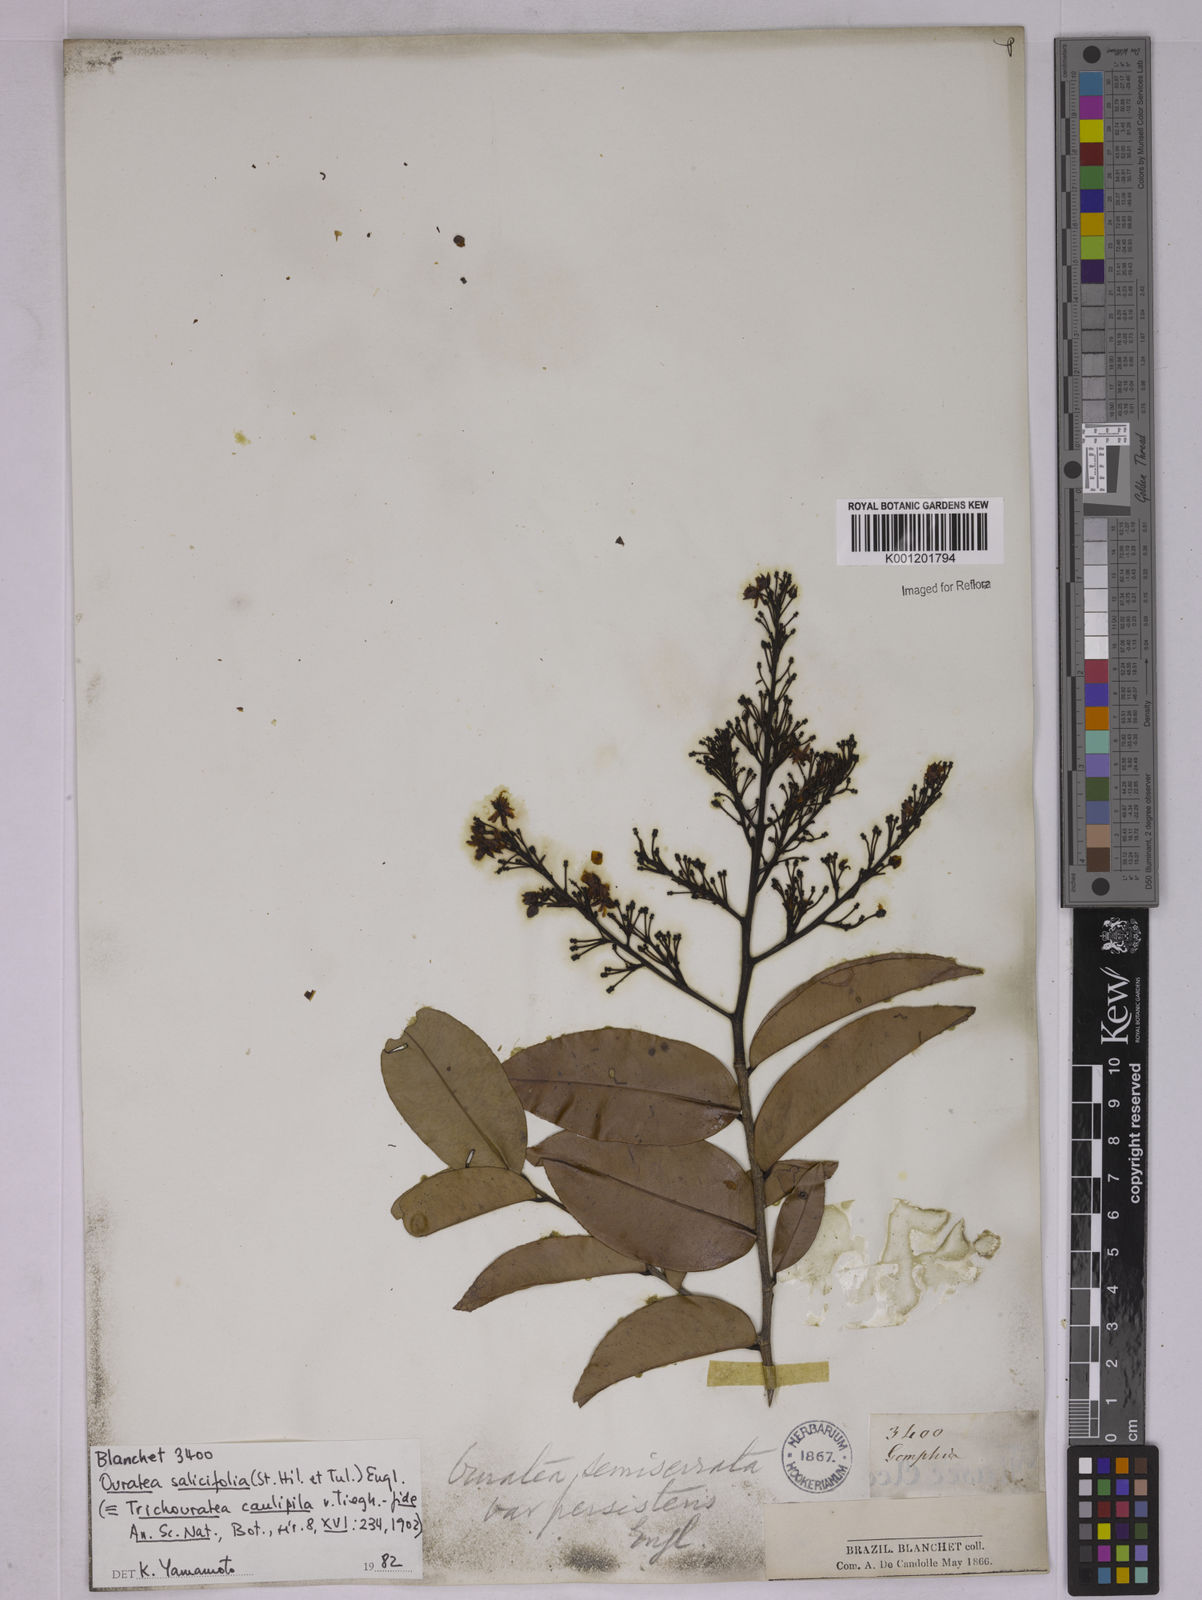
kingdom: Plantae
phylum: Tracheophyta
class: Magnoliopsida
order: Malpighiales
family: Ochnaceae
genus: Ouratea
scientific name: Ouratea salicifolia
